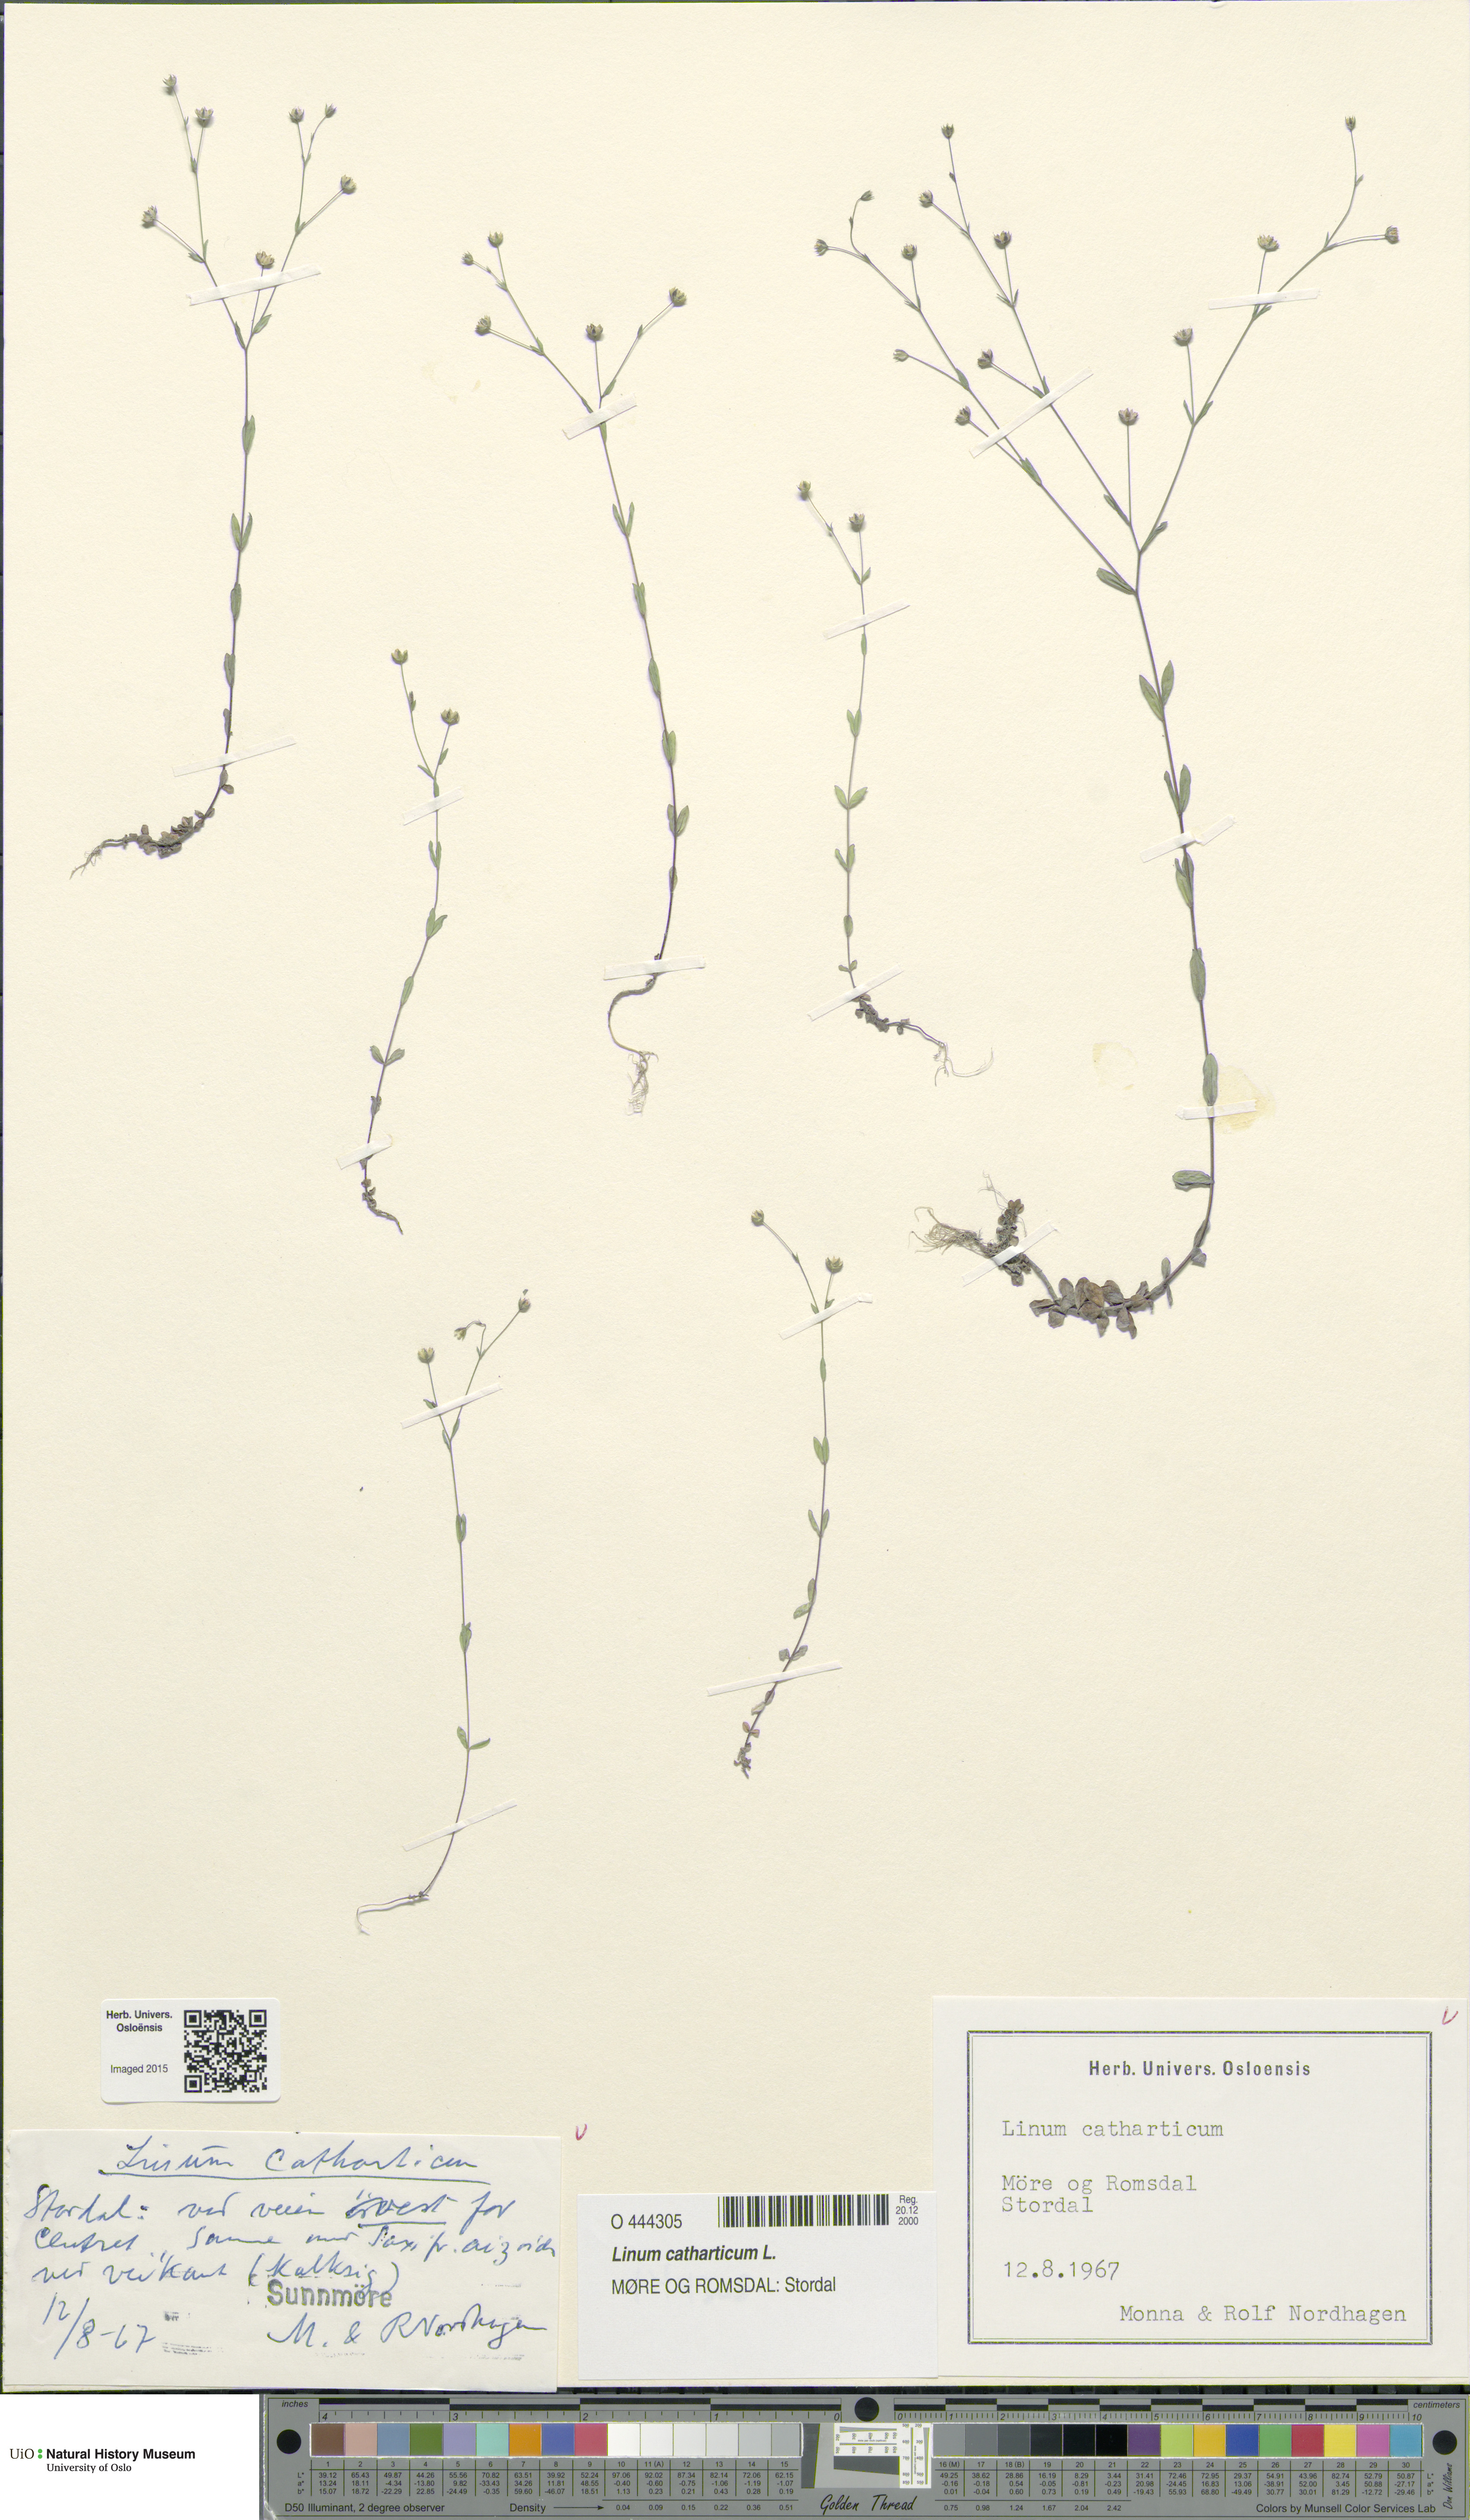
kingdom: Plantae
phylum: Tracheophyta
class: Magnoliopsida
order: Malpighiales
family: Linaceae
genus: Linum
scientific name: Linum catharticum
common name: Fairy flax
